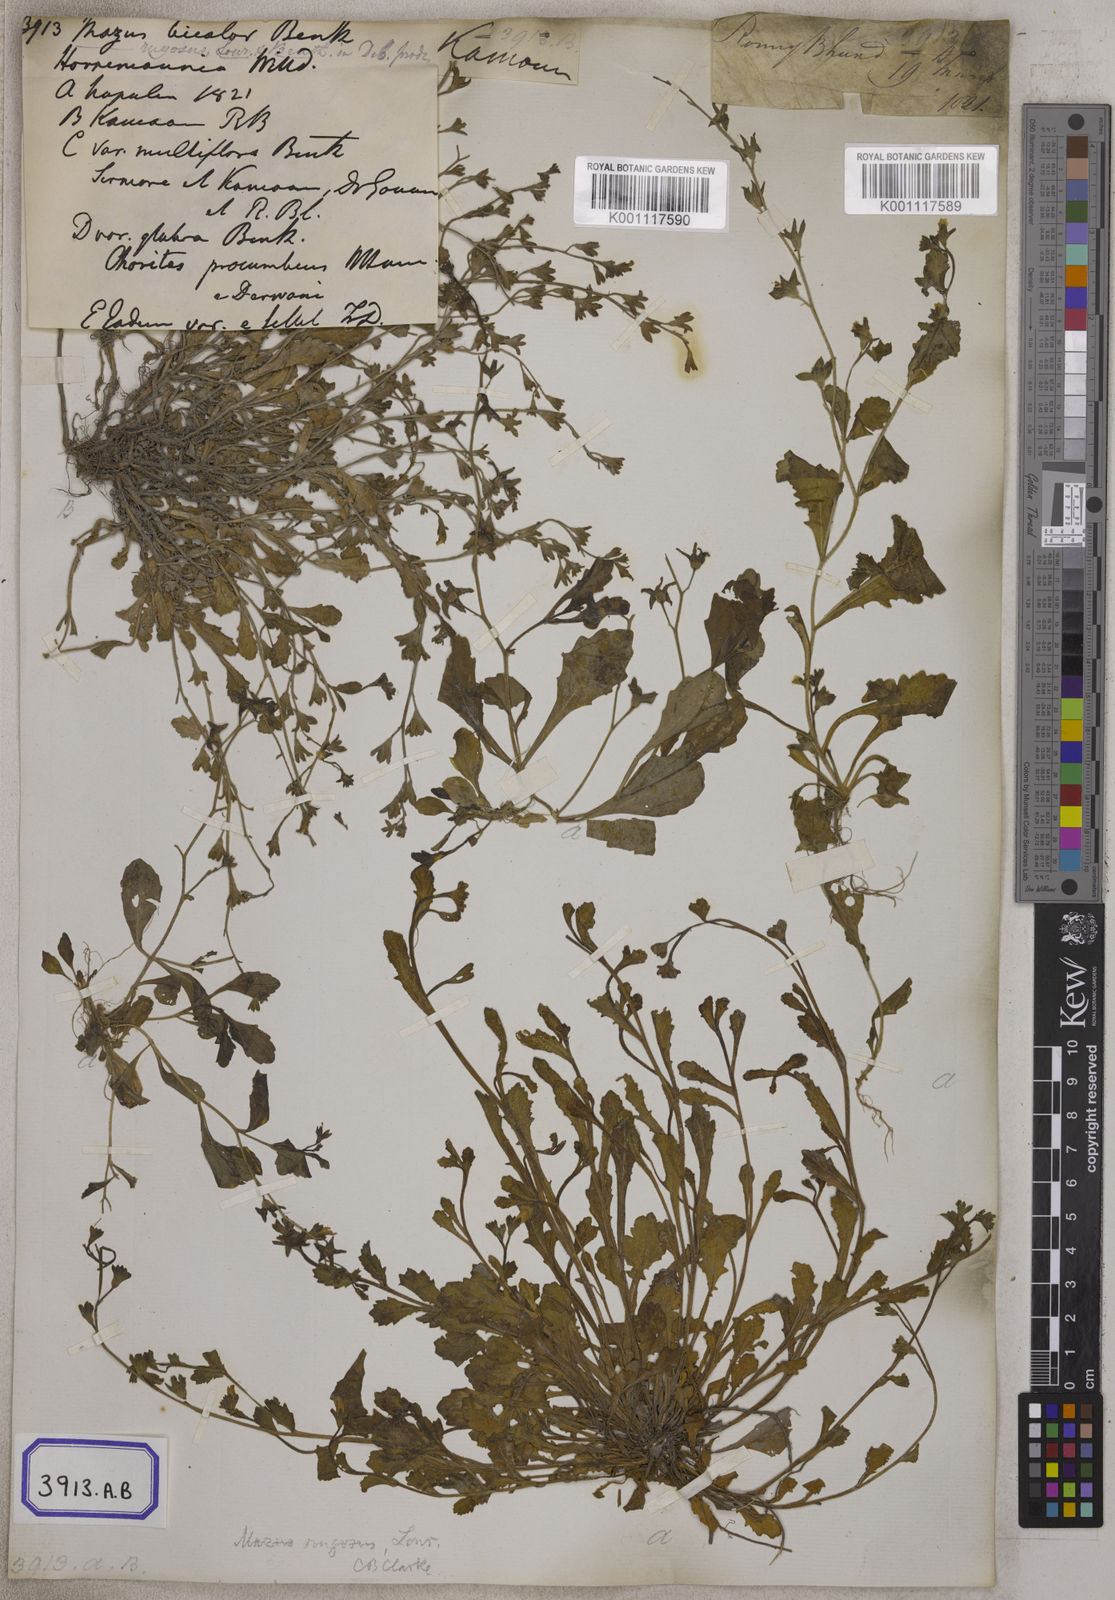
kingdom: Plantae
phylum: Tracheophyta
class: Magnoliopsida
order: Lamiales
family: Mazaceae
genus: Mazus
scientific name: Mazus pumilus
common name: Japanese mazus
